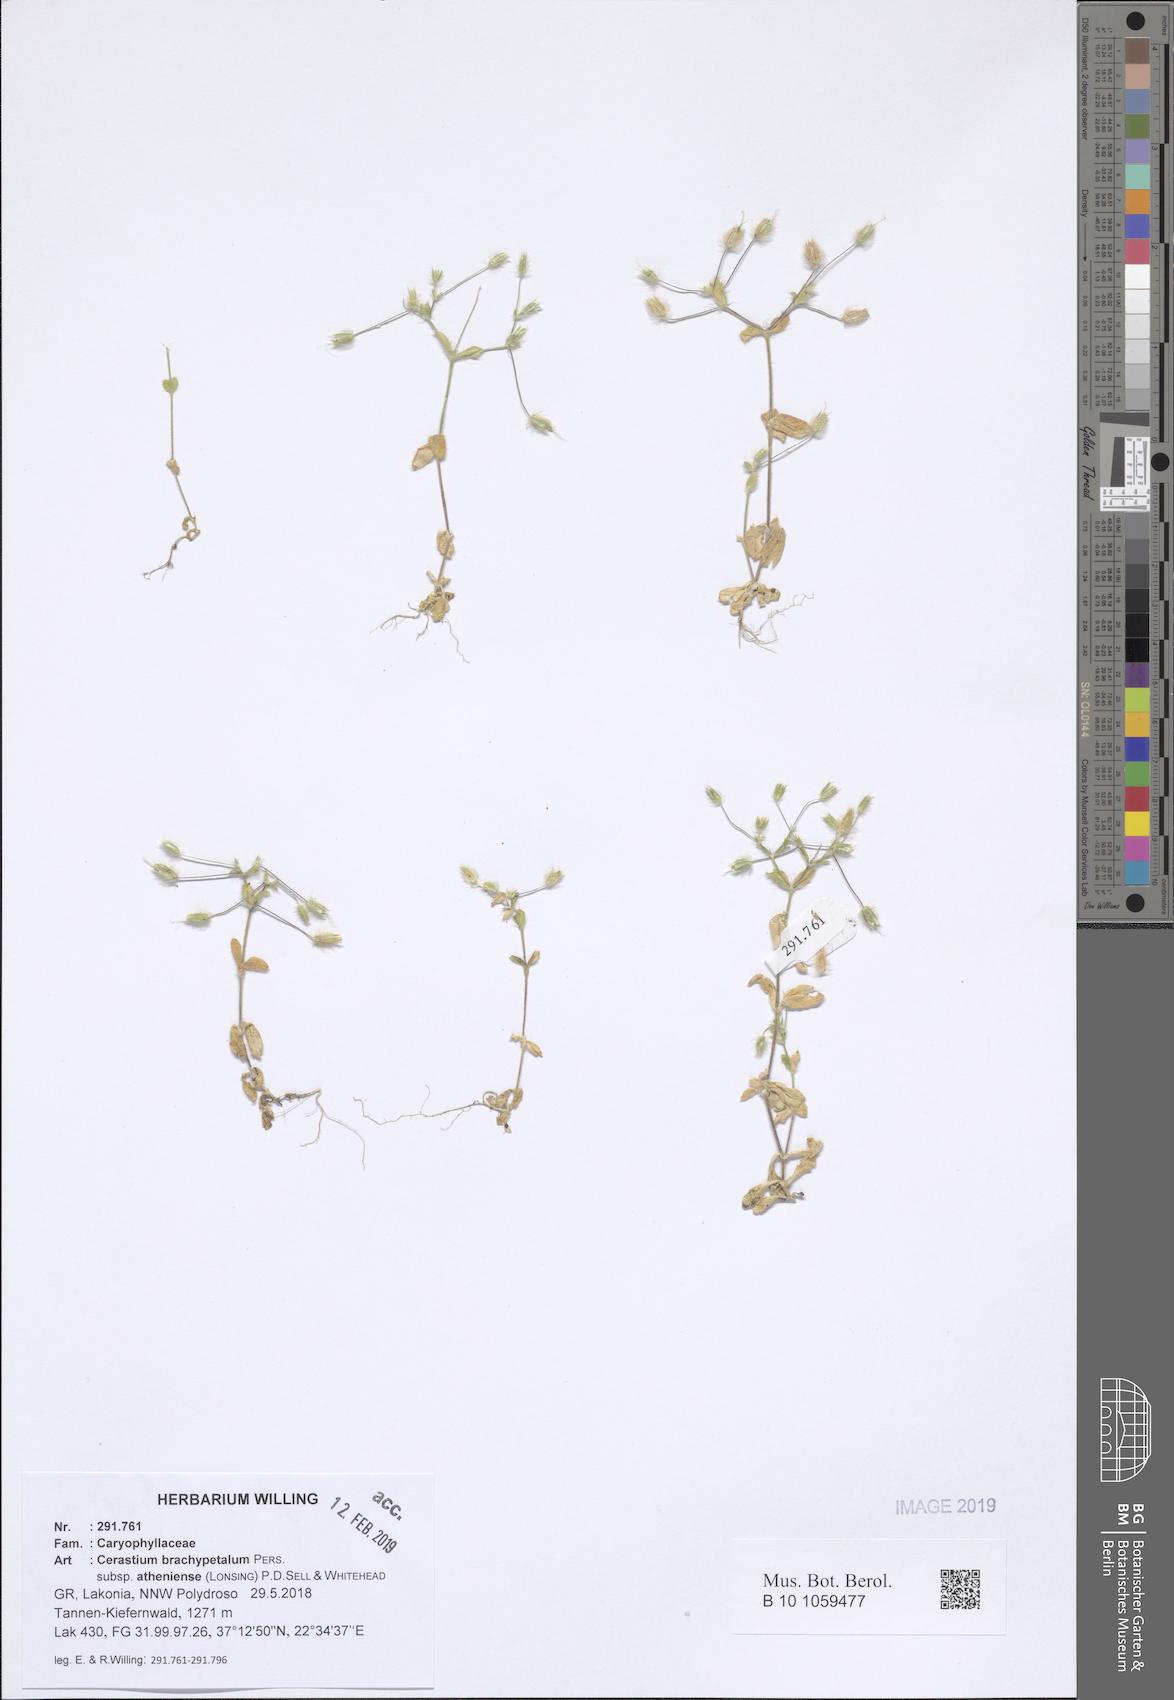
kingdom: Plantae
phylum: Tracheophyta
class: Magnoliopsida
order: Caryophyllales
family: Caryophyllaceae
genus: Cerastium
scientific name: Cerastium brachypetalum
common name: Grey mouse-ear
